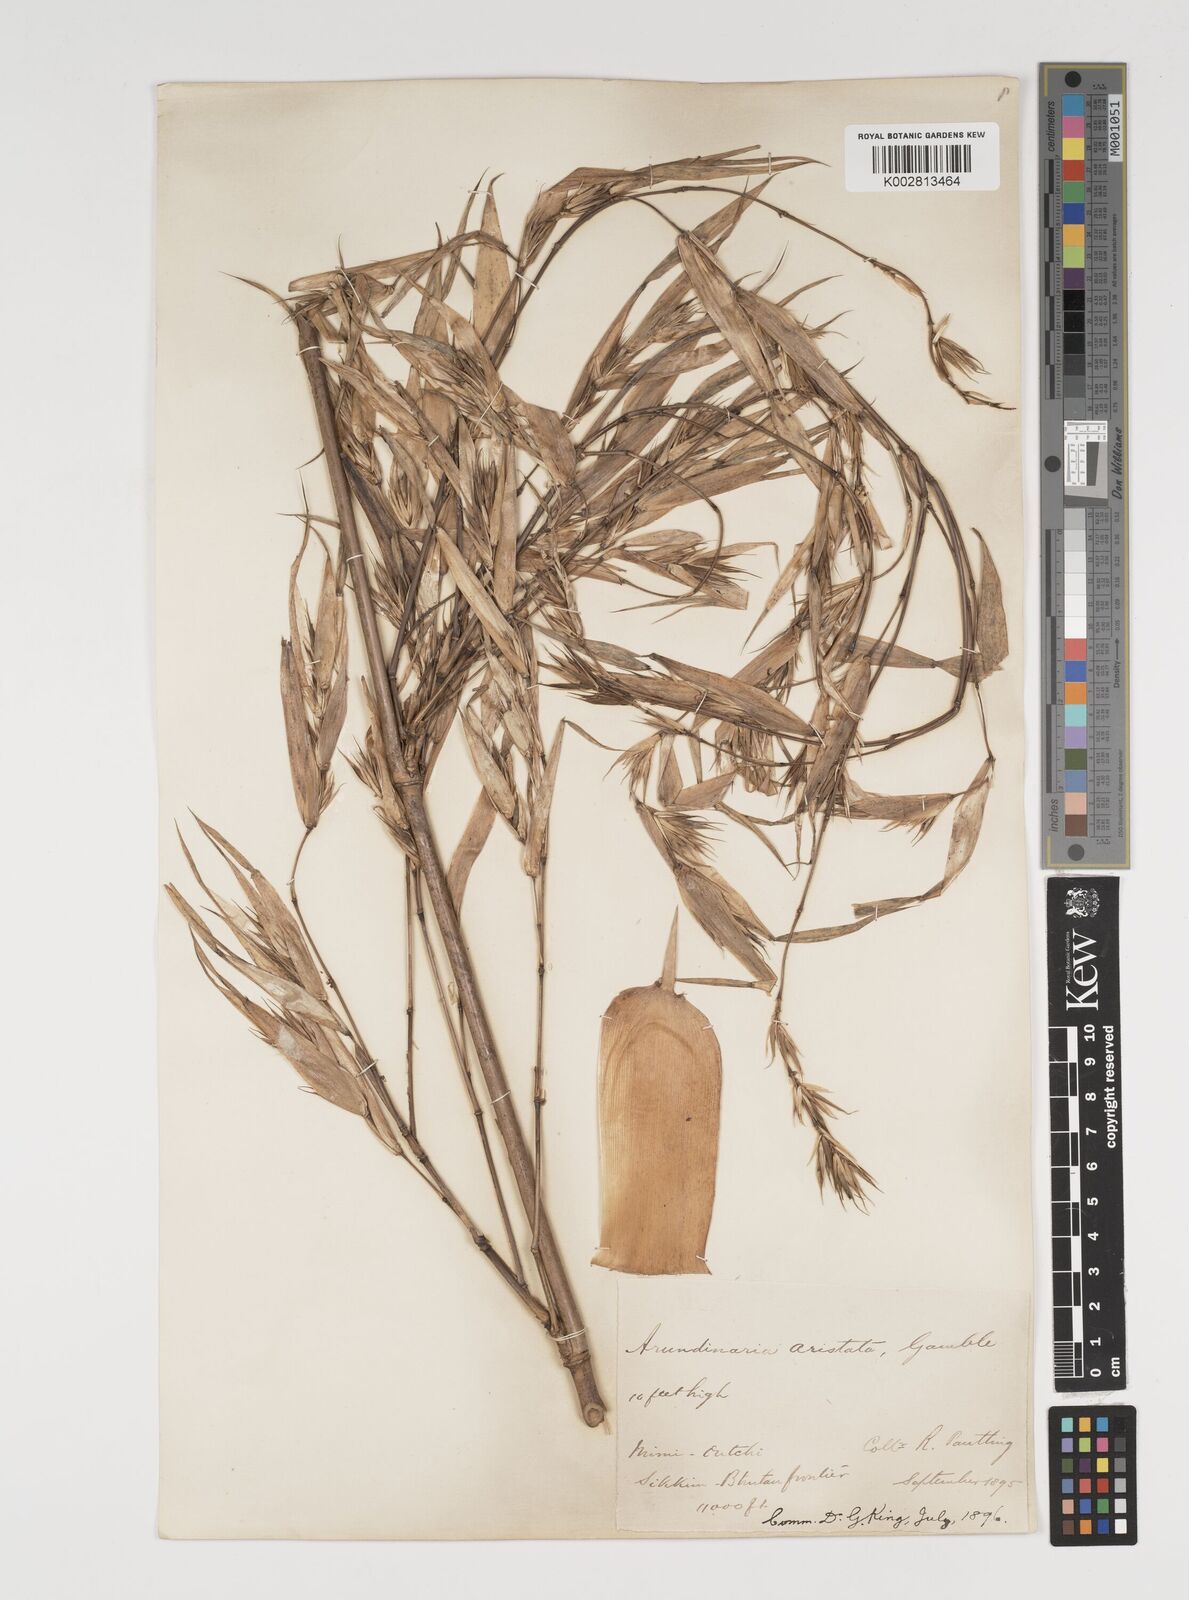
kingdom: Plantae
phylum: Tracheophyta
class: Liliopsida
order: Poales
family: Poaceae
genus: Thamnocalamus
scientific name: Thamnocalamus spathiflorus
